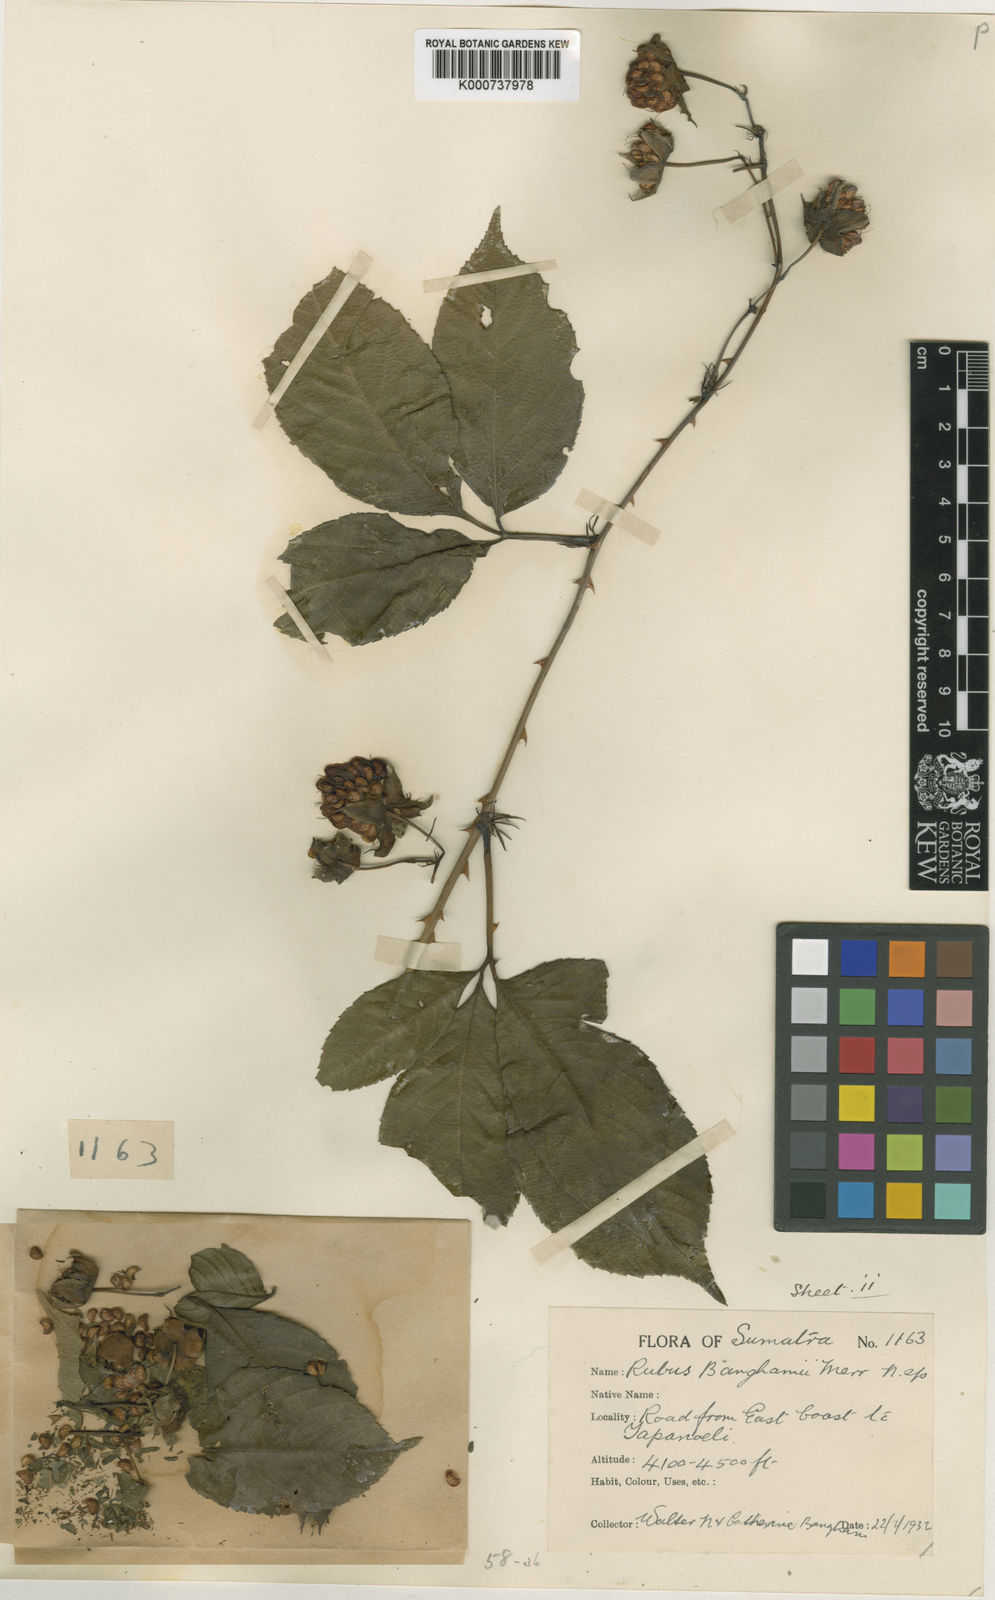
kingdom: Plantae
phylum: Tracheophyta
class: Magnoliopsida
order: Rosales
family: Rosaceae
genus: Rubus
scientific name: Rubus banghamii
